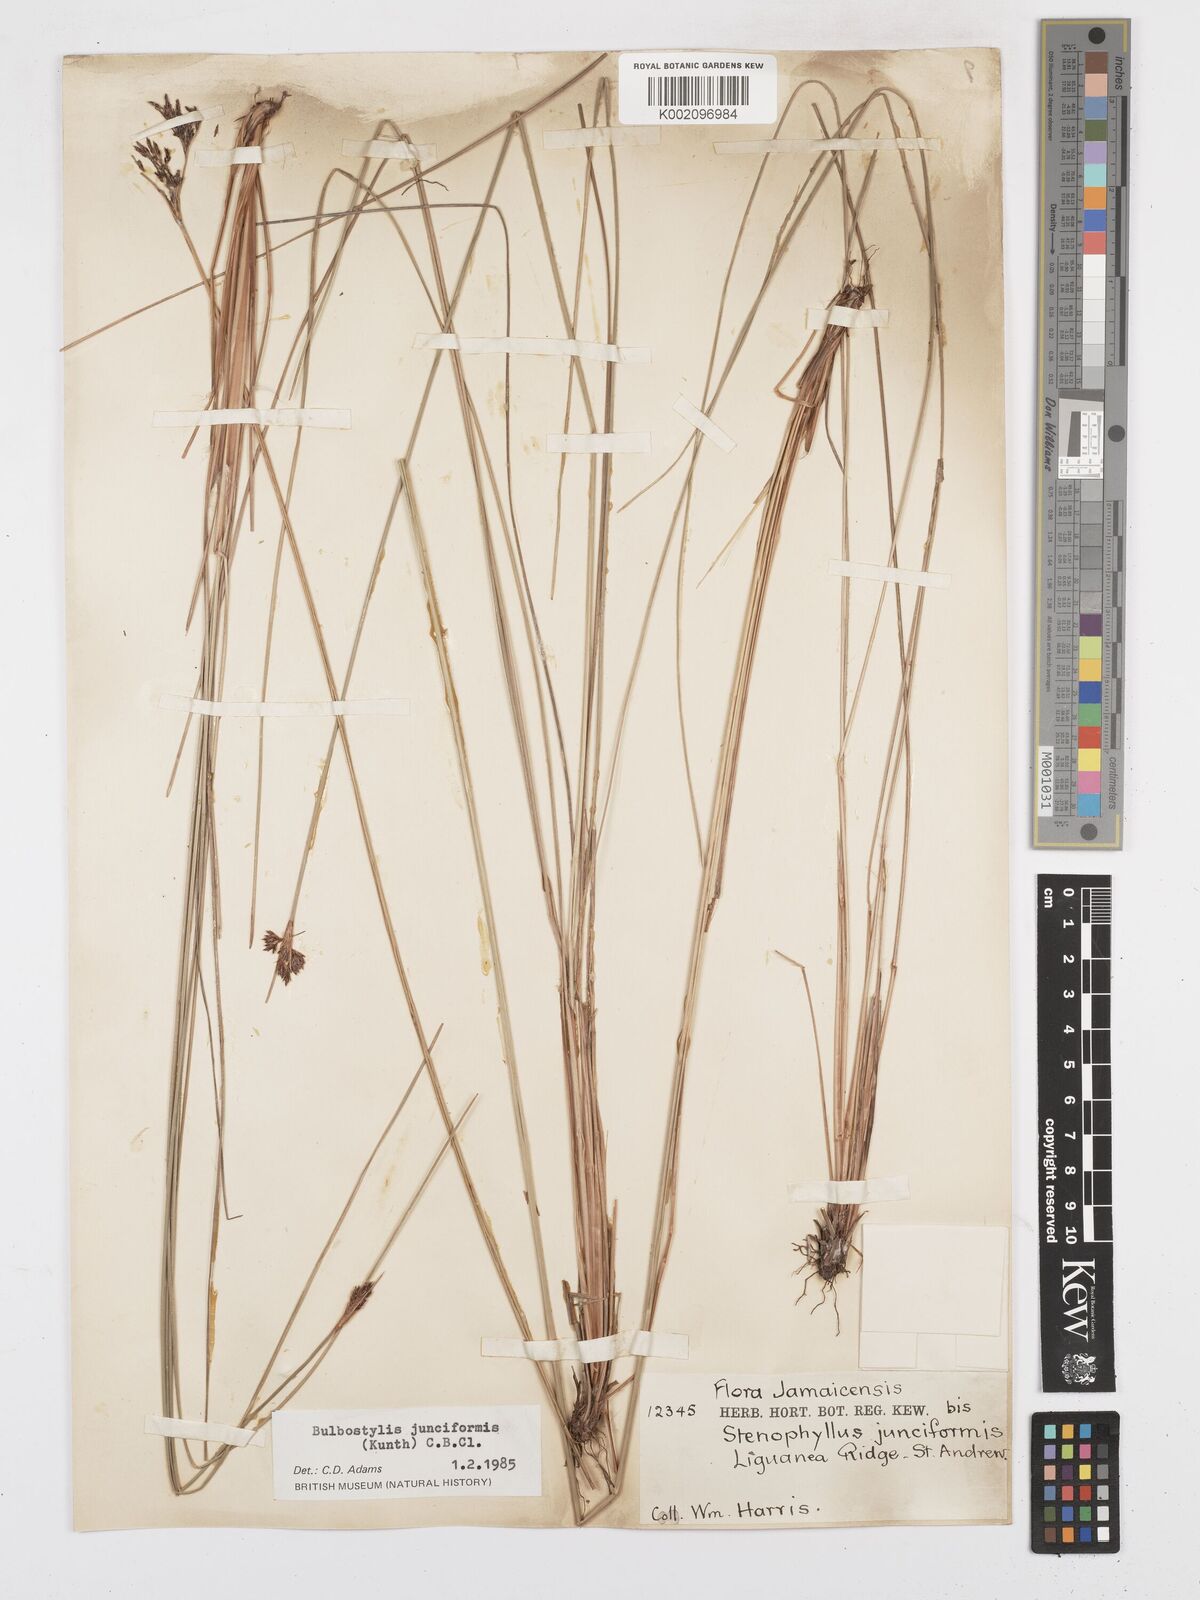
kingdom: Plantae
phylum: Tracheophyta
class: Liliopsida
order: Poales
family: Cyperaceae
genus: Bulbostylis
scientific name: Bulbostylis junciformis
